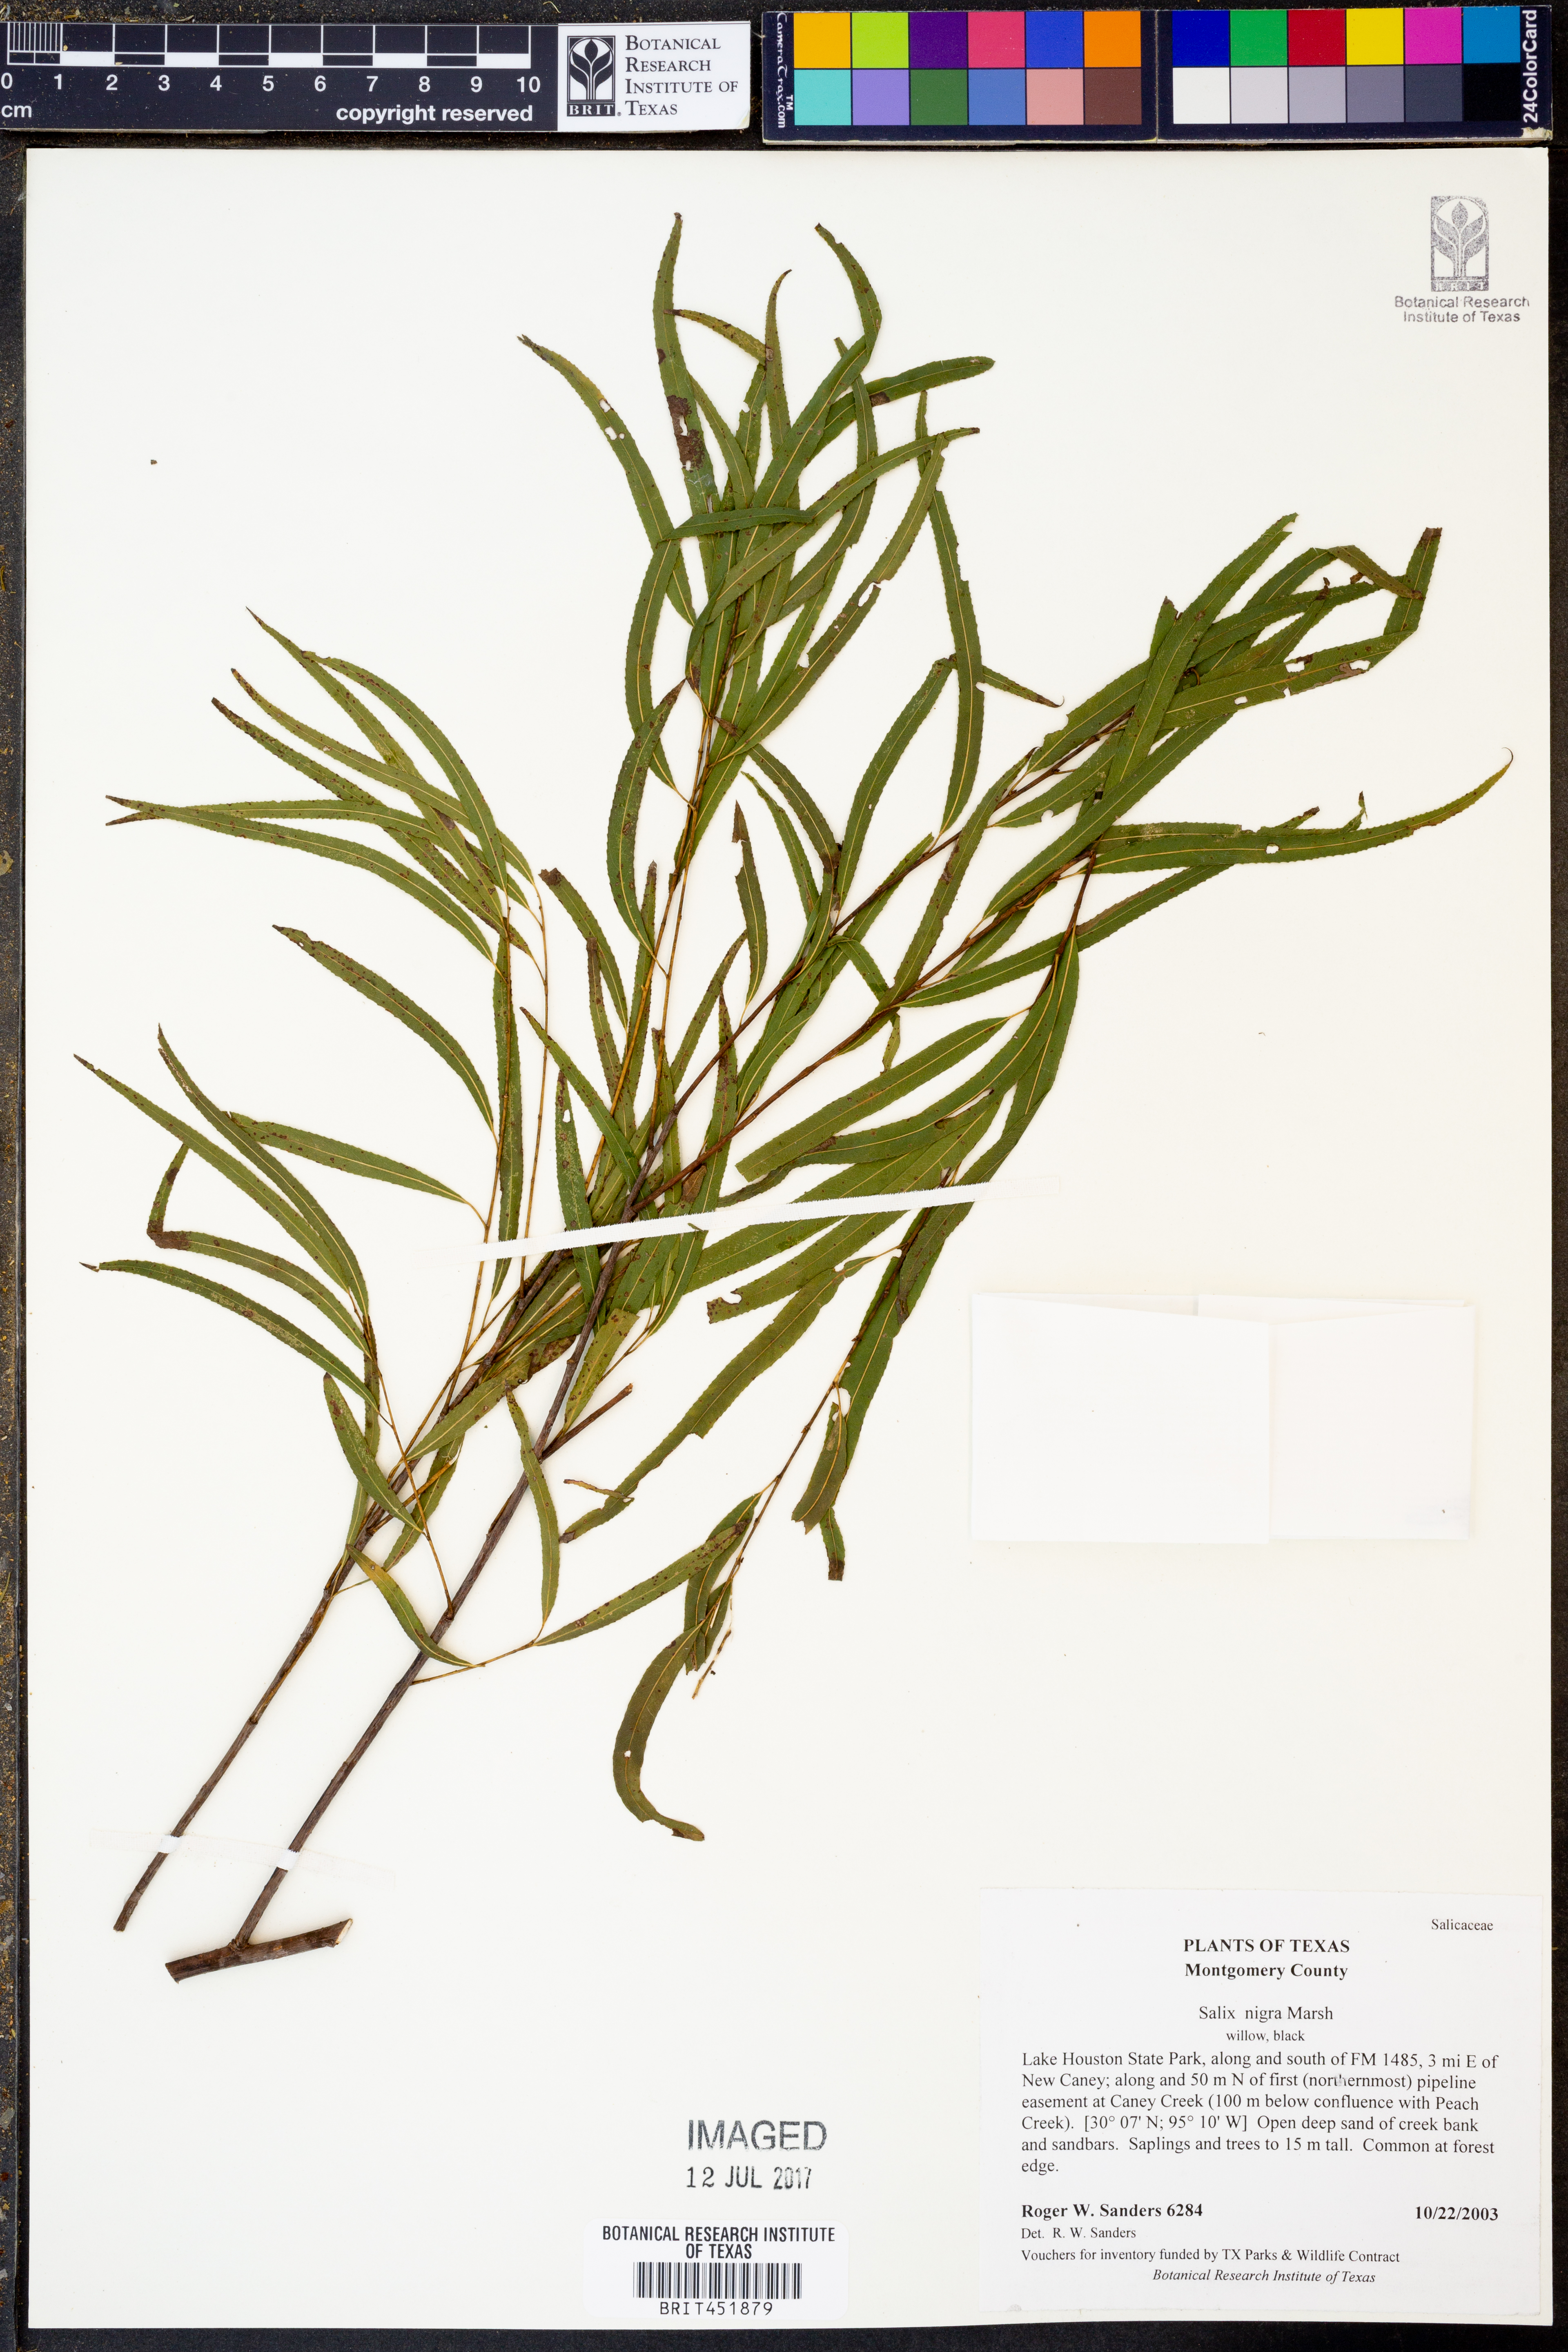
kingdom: Plantae
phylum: Tracheophyta
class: Magnoliopsida
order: Malpighiales
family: Salicaceae
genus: Salix
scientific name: Salix nigra
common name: Black willow
